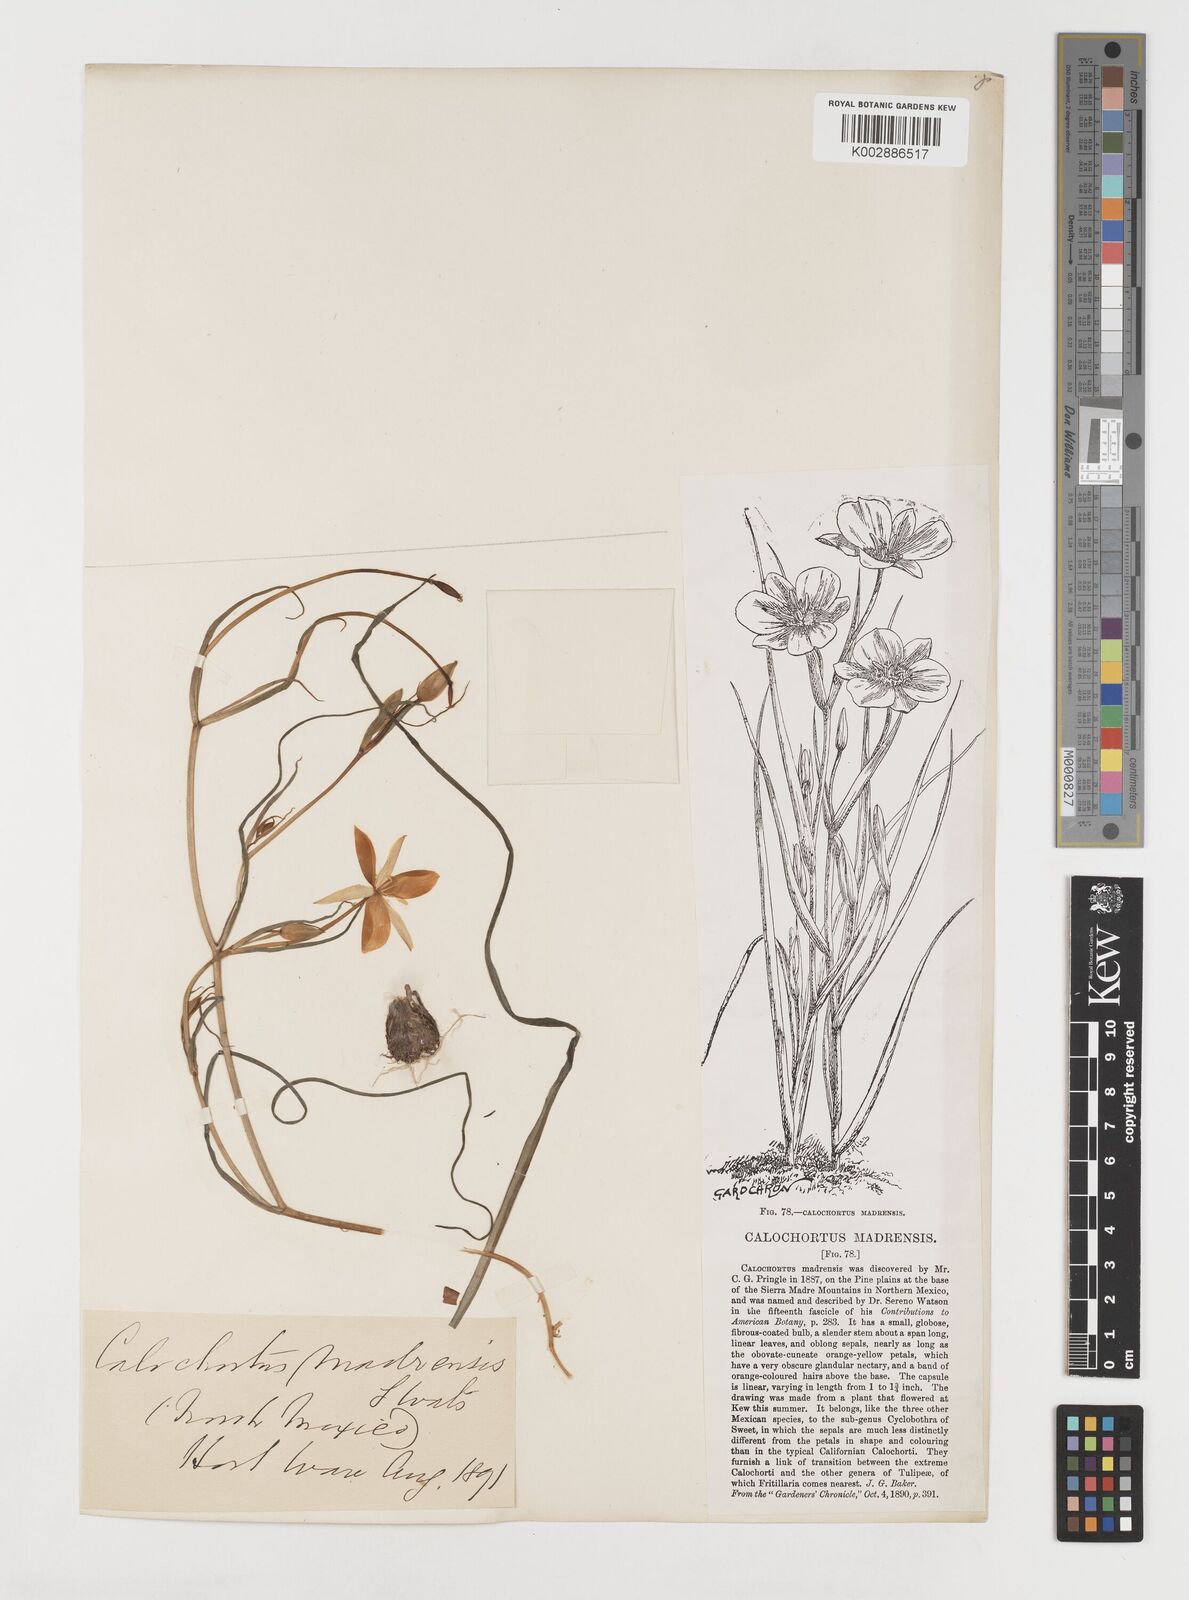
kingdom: Plantae
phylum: Tracheophyta
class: Liliopsida
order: Liliales
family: Liliaceae
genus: Calochortus
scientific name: Calochortus venustulus
